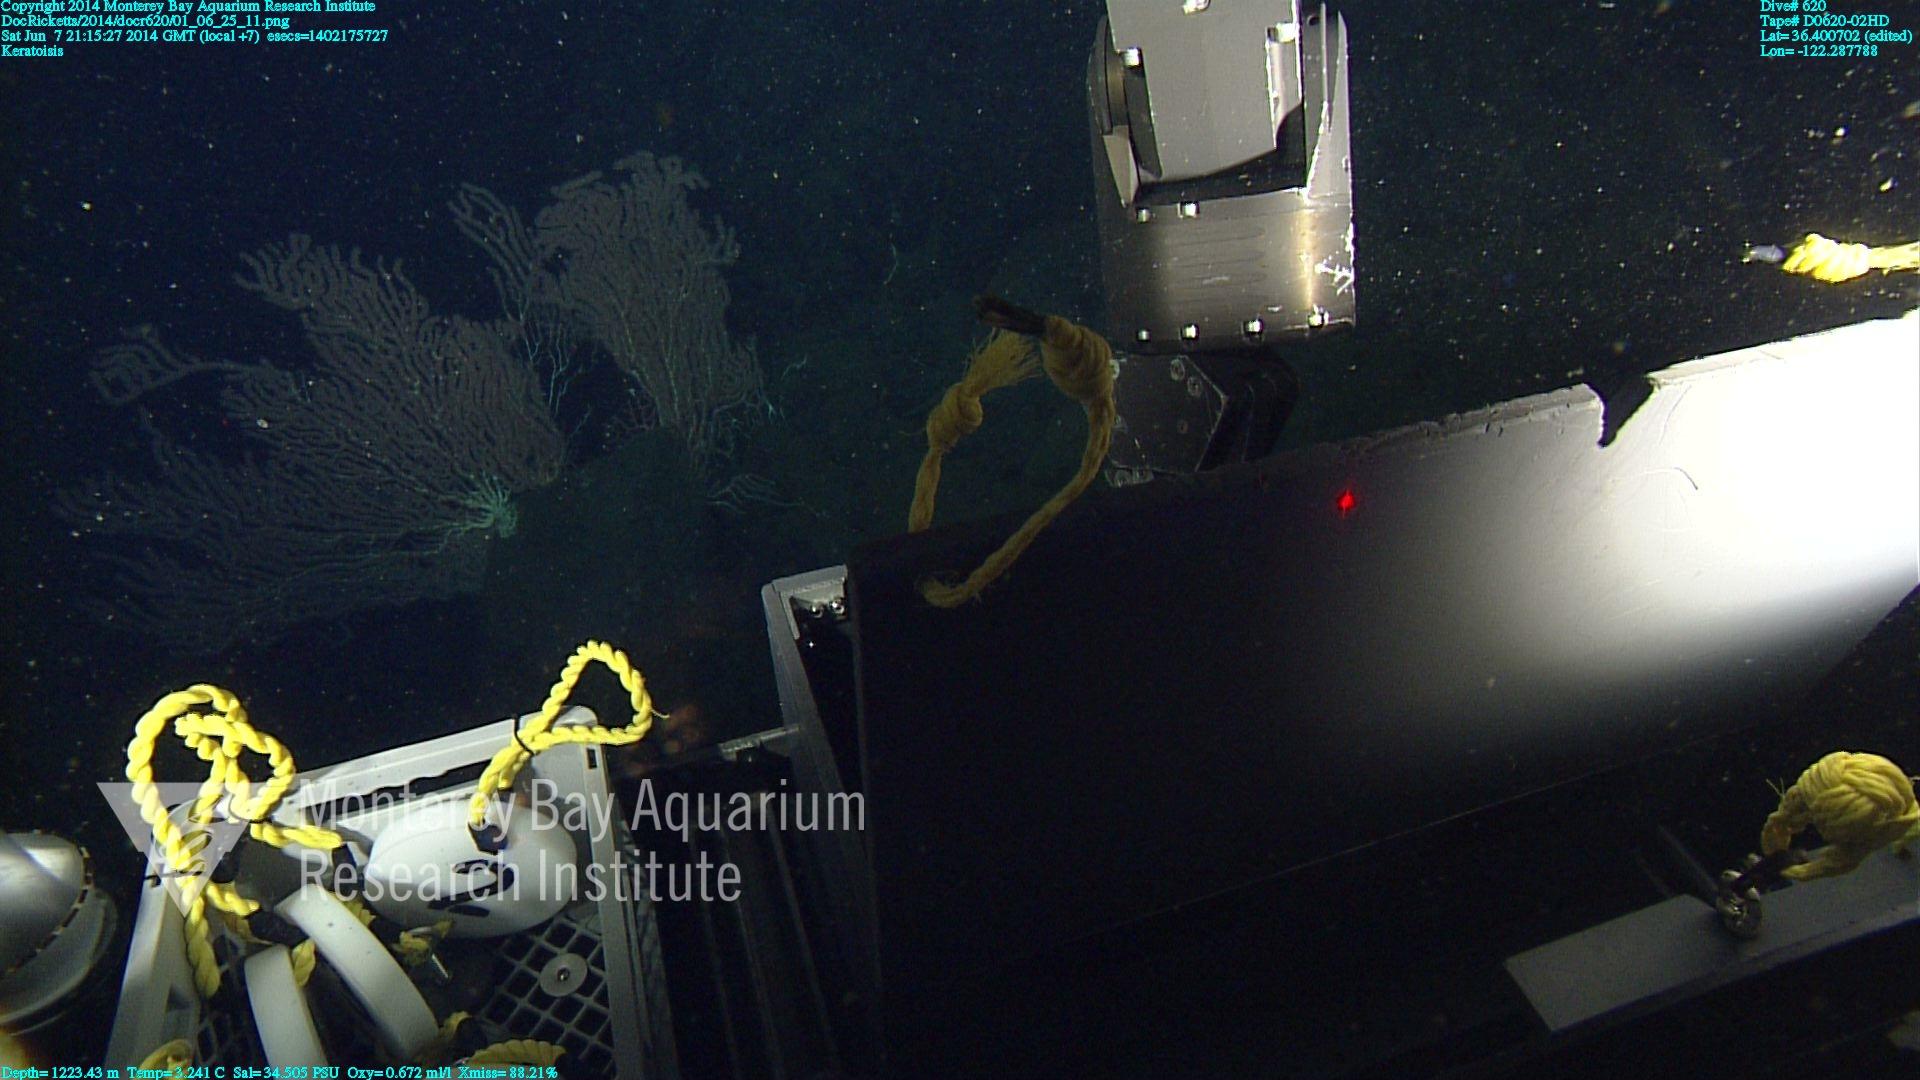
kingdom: Animalia
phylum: Cnidaria
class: Anthozoa
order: Scleralcyonacea
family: Keratoisididae
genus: Keratoisis
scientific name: Keratoisis
